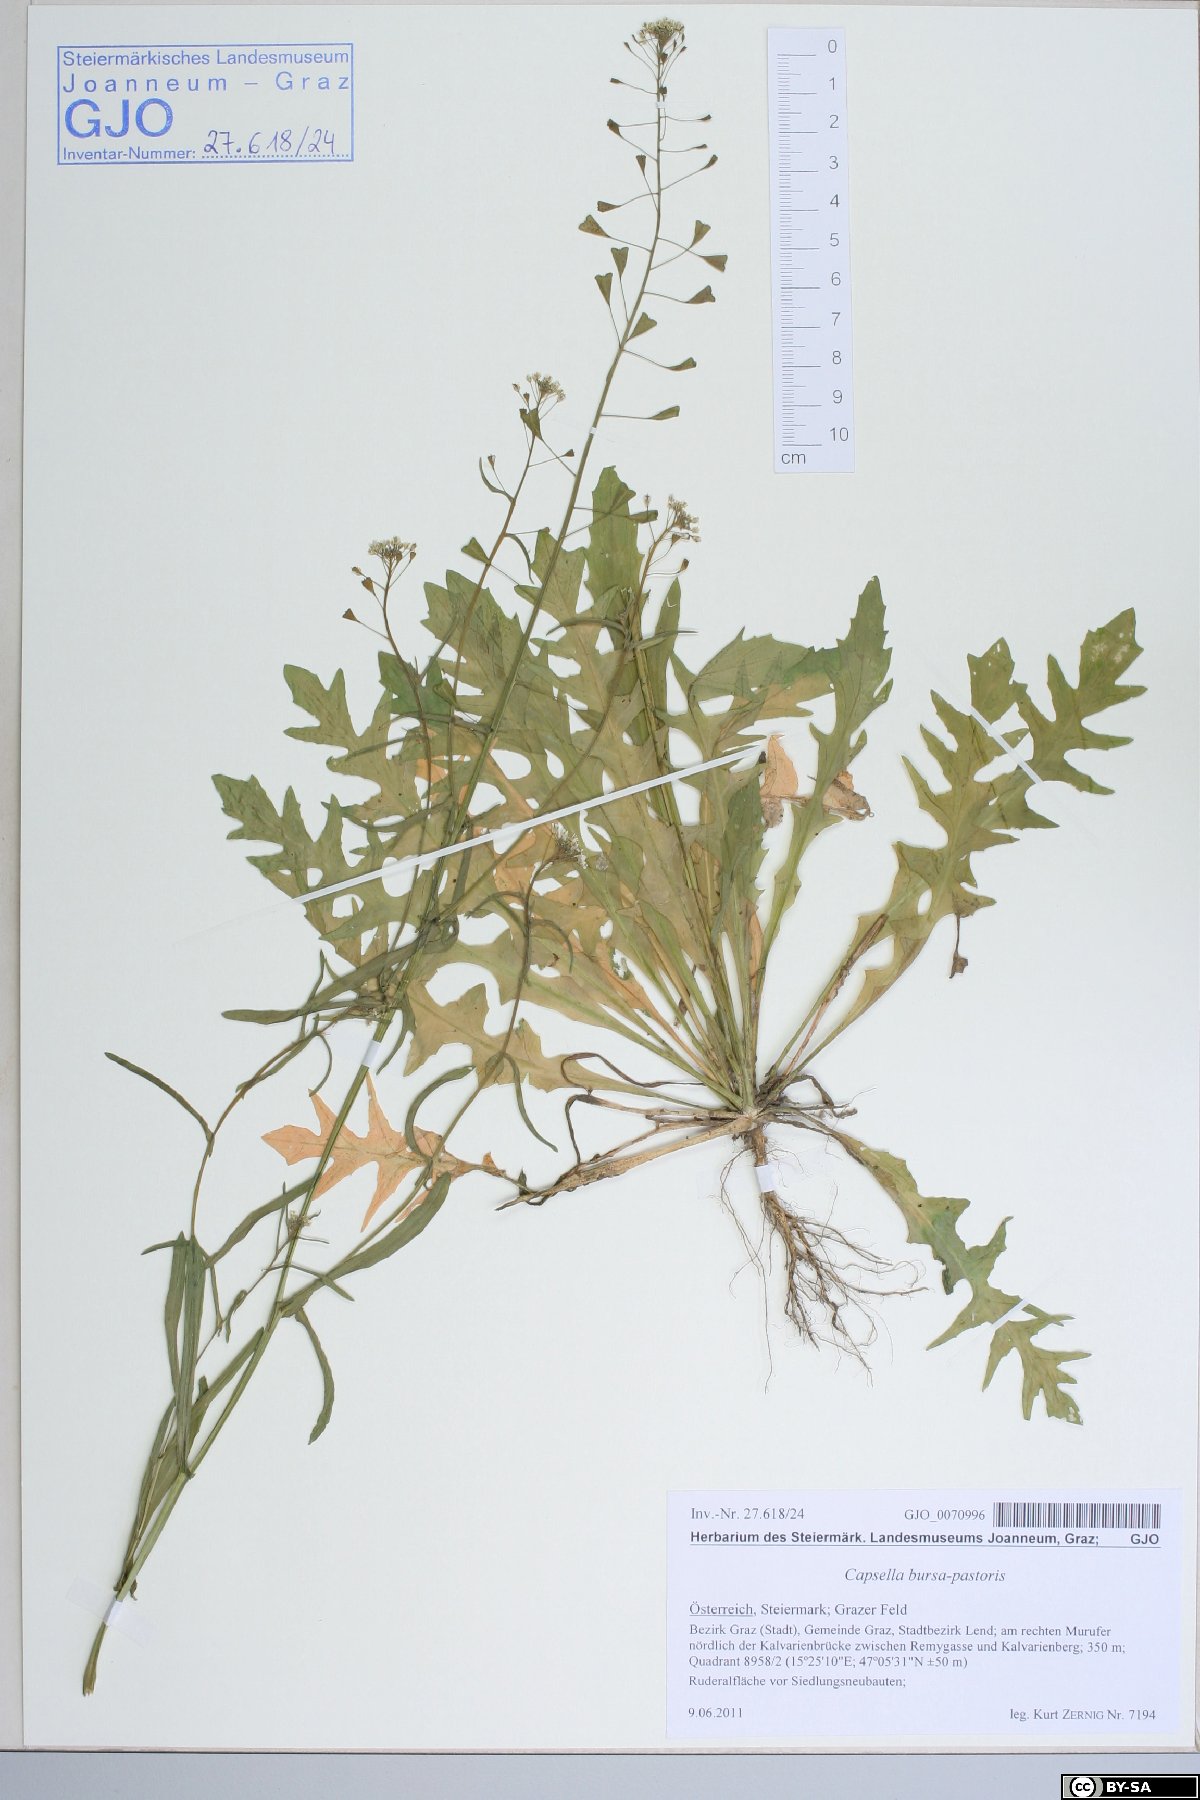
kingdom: Plantae
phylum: Tracheophyta
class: Magnoliopsida
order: Brassicales
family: Brassicaceae
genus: Capsella
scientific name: Capsella bursa-pastoris
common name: Shepherd's purse
